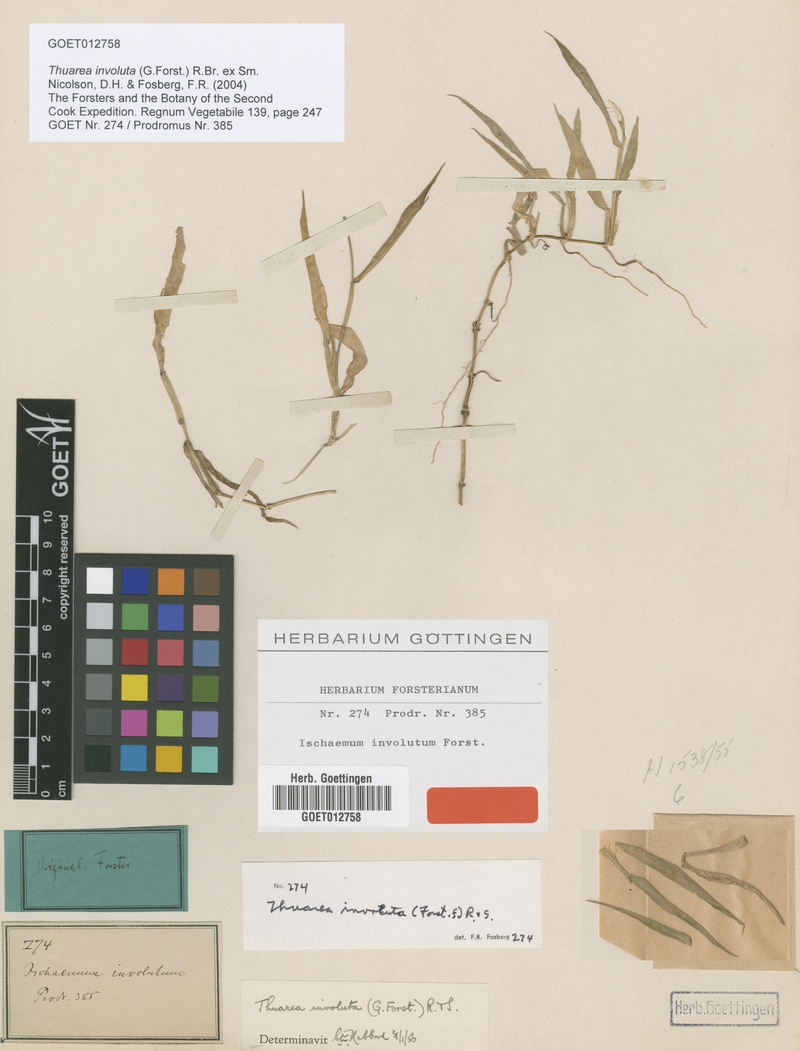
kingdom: Plantae
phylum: Tracheophyta
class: Liliopsida
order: Poales
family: Poaceae
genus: Thuarea
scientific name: Thuarea involuta
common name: Tropical beach grass
